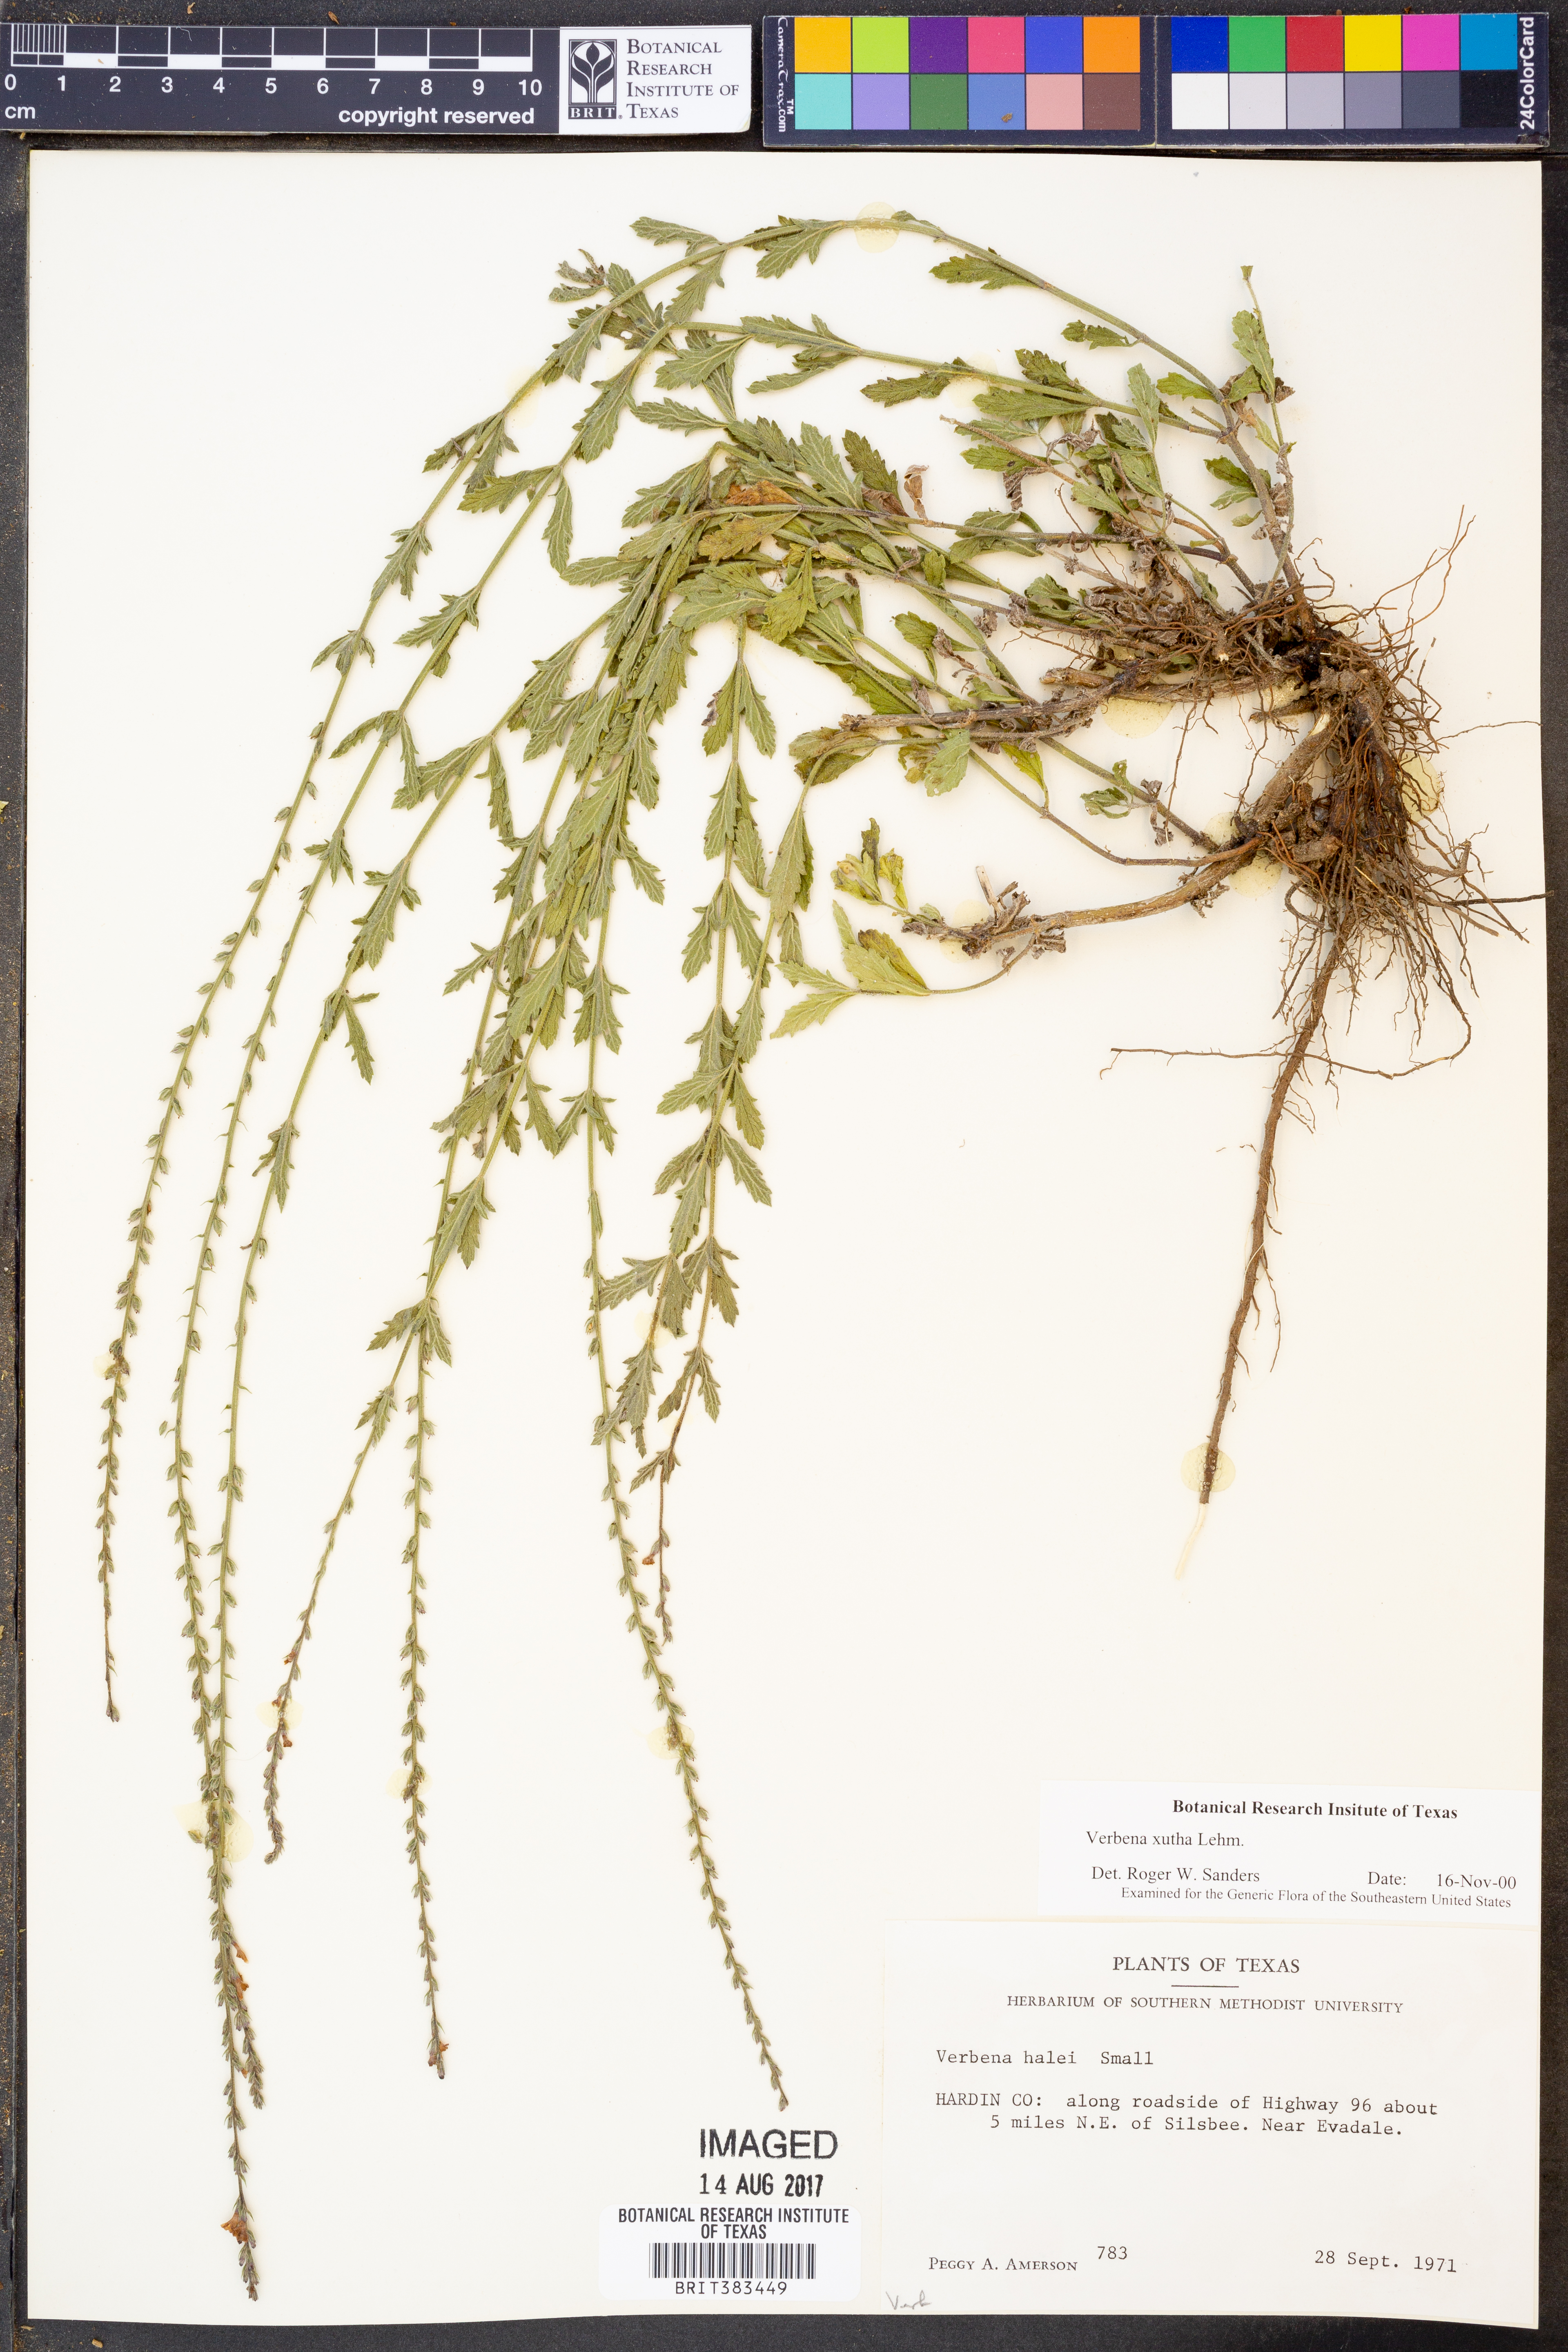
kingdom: Plantae
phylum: Tracheophyta
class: Magnoliopsida
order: Lamiales
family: Verbenaceae
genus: Verbena
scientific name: Verbena xutha
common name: Gulf vervain
